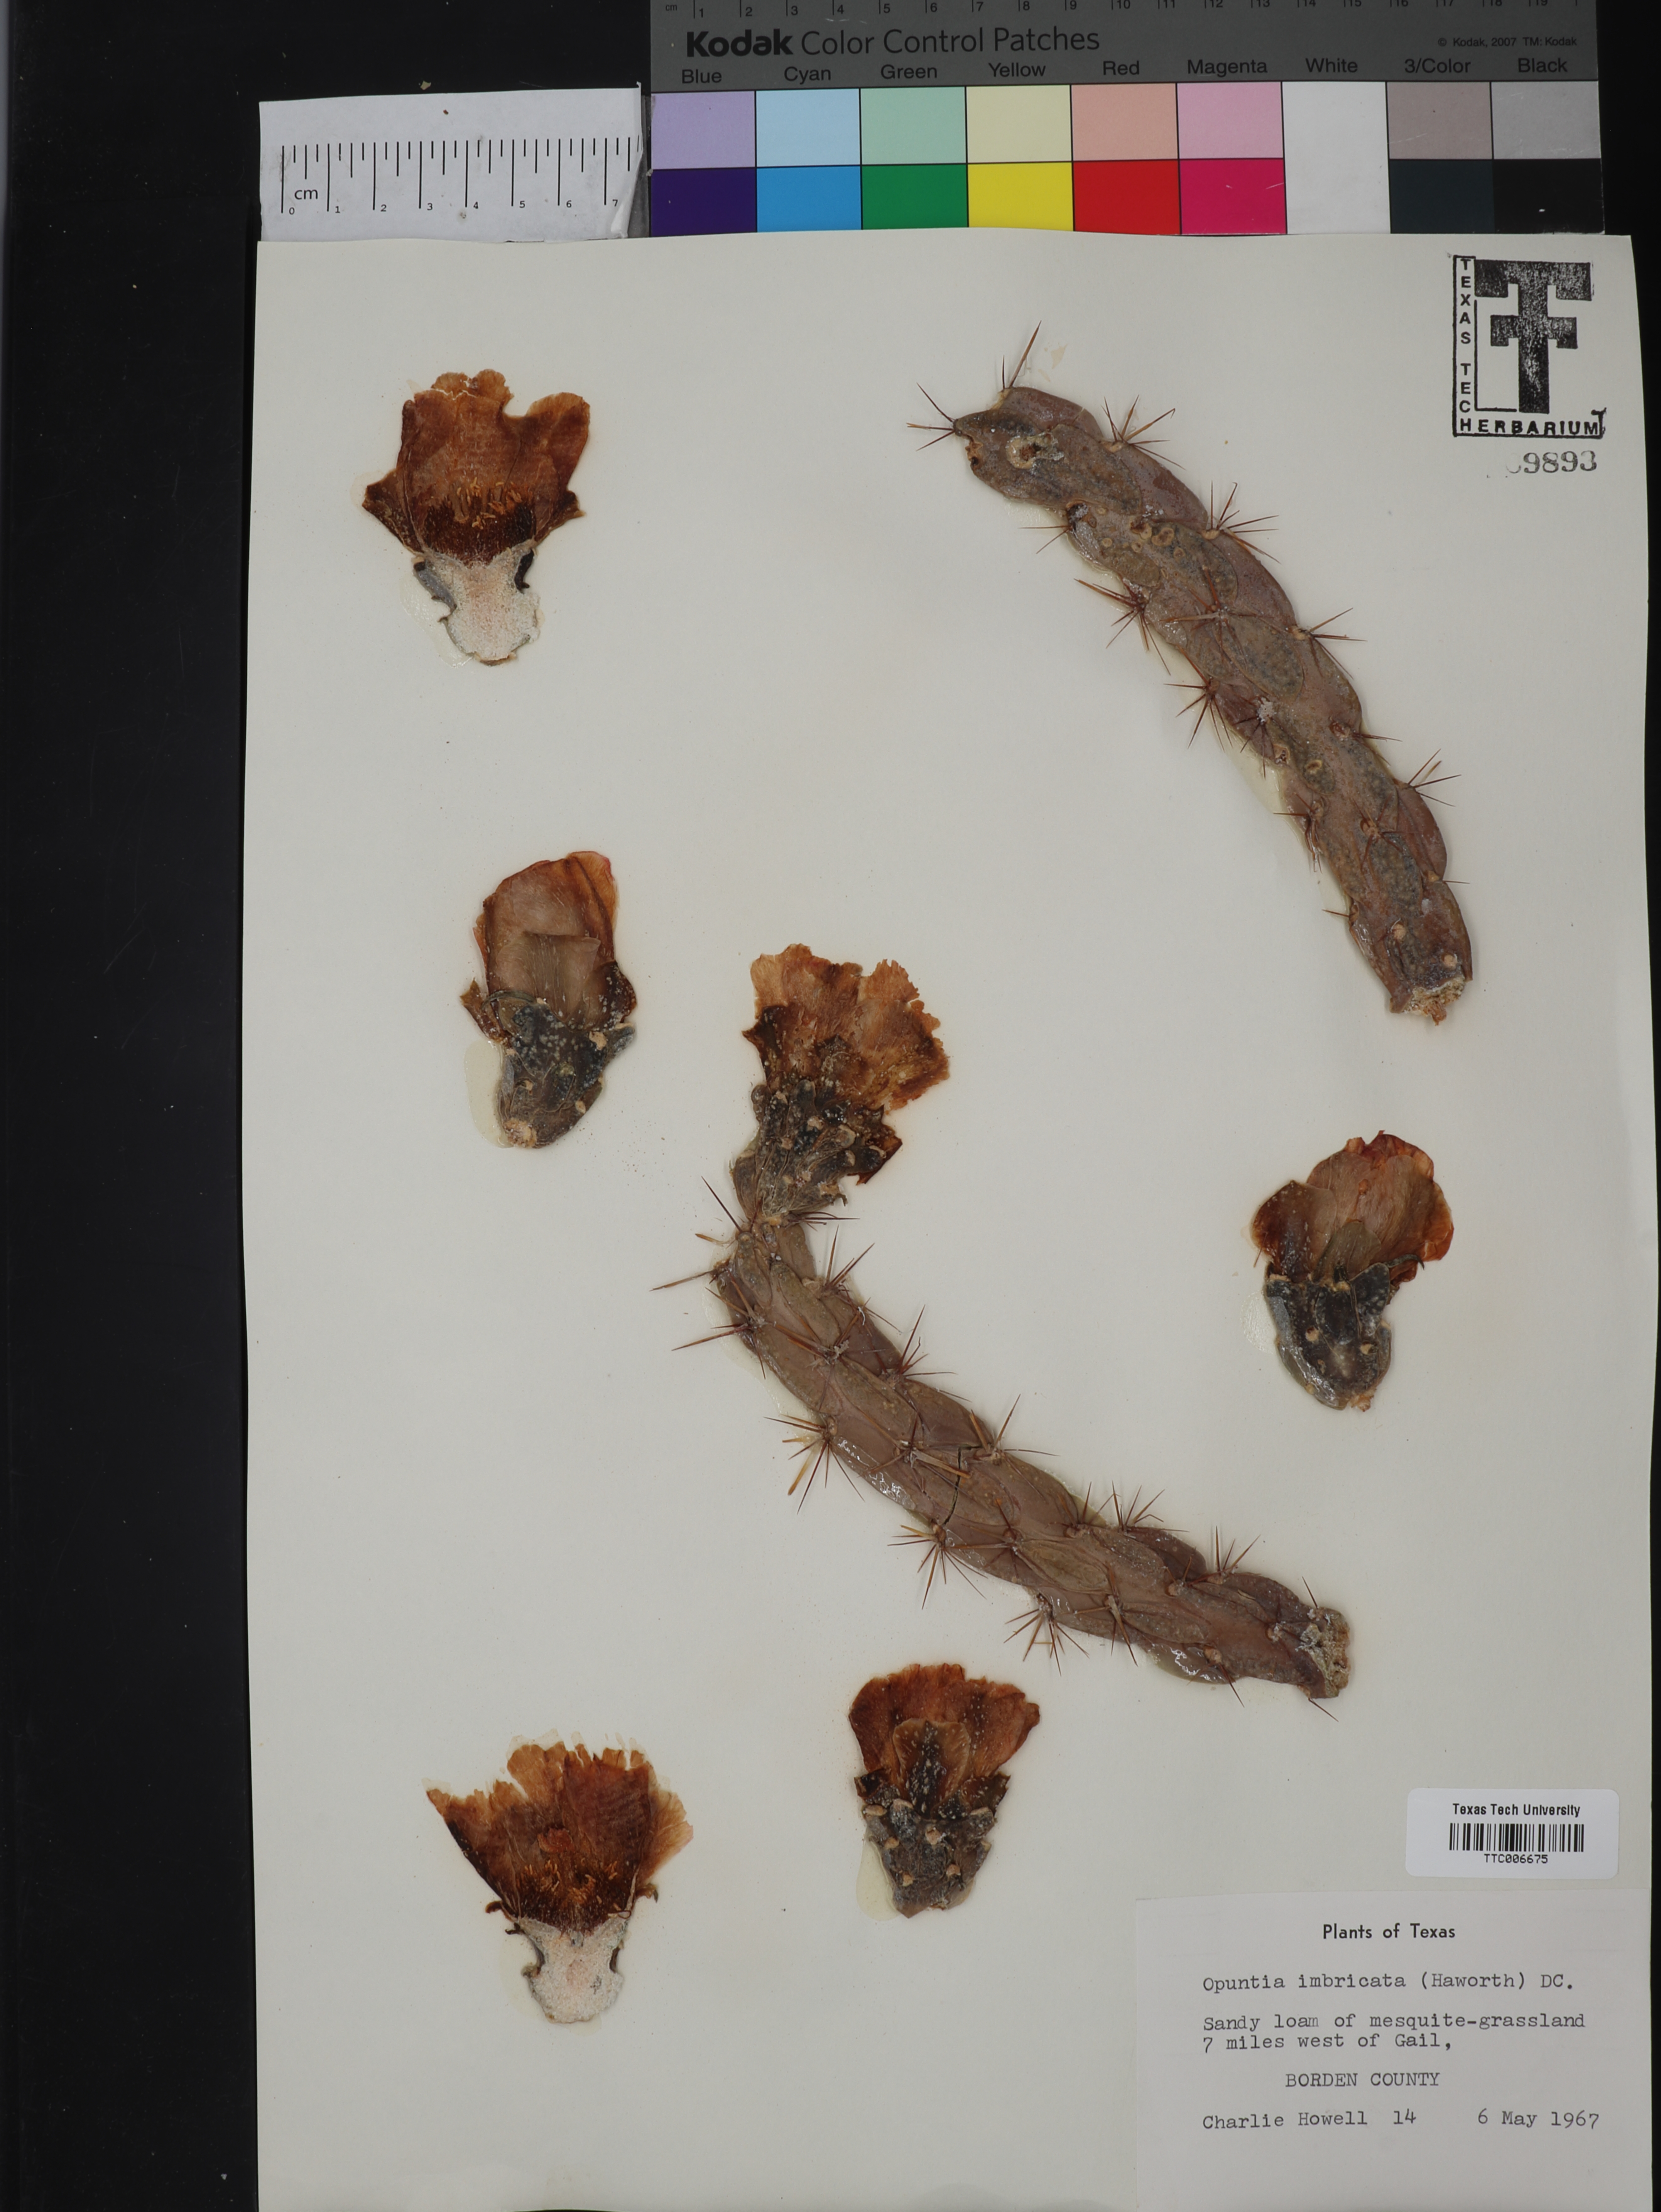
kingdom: Plantae
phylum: Tracheophyta
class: Magnoliopsida
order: Caryophyllales
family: Cactaceae
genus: Cylindropuntia
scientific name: Cylindropuntia imbricata
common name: Candelabrum cactus
